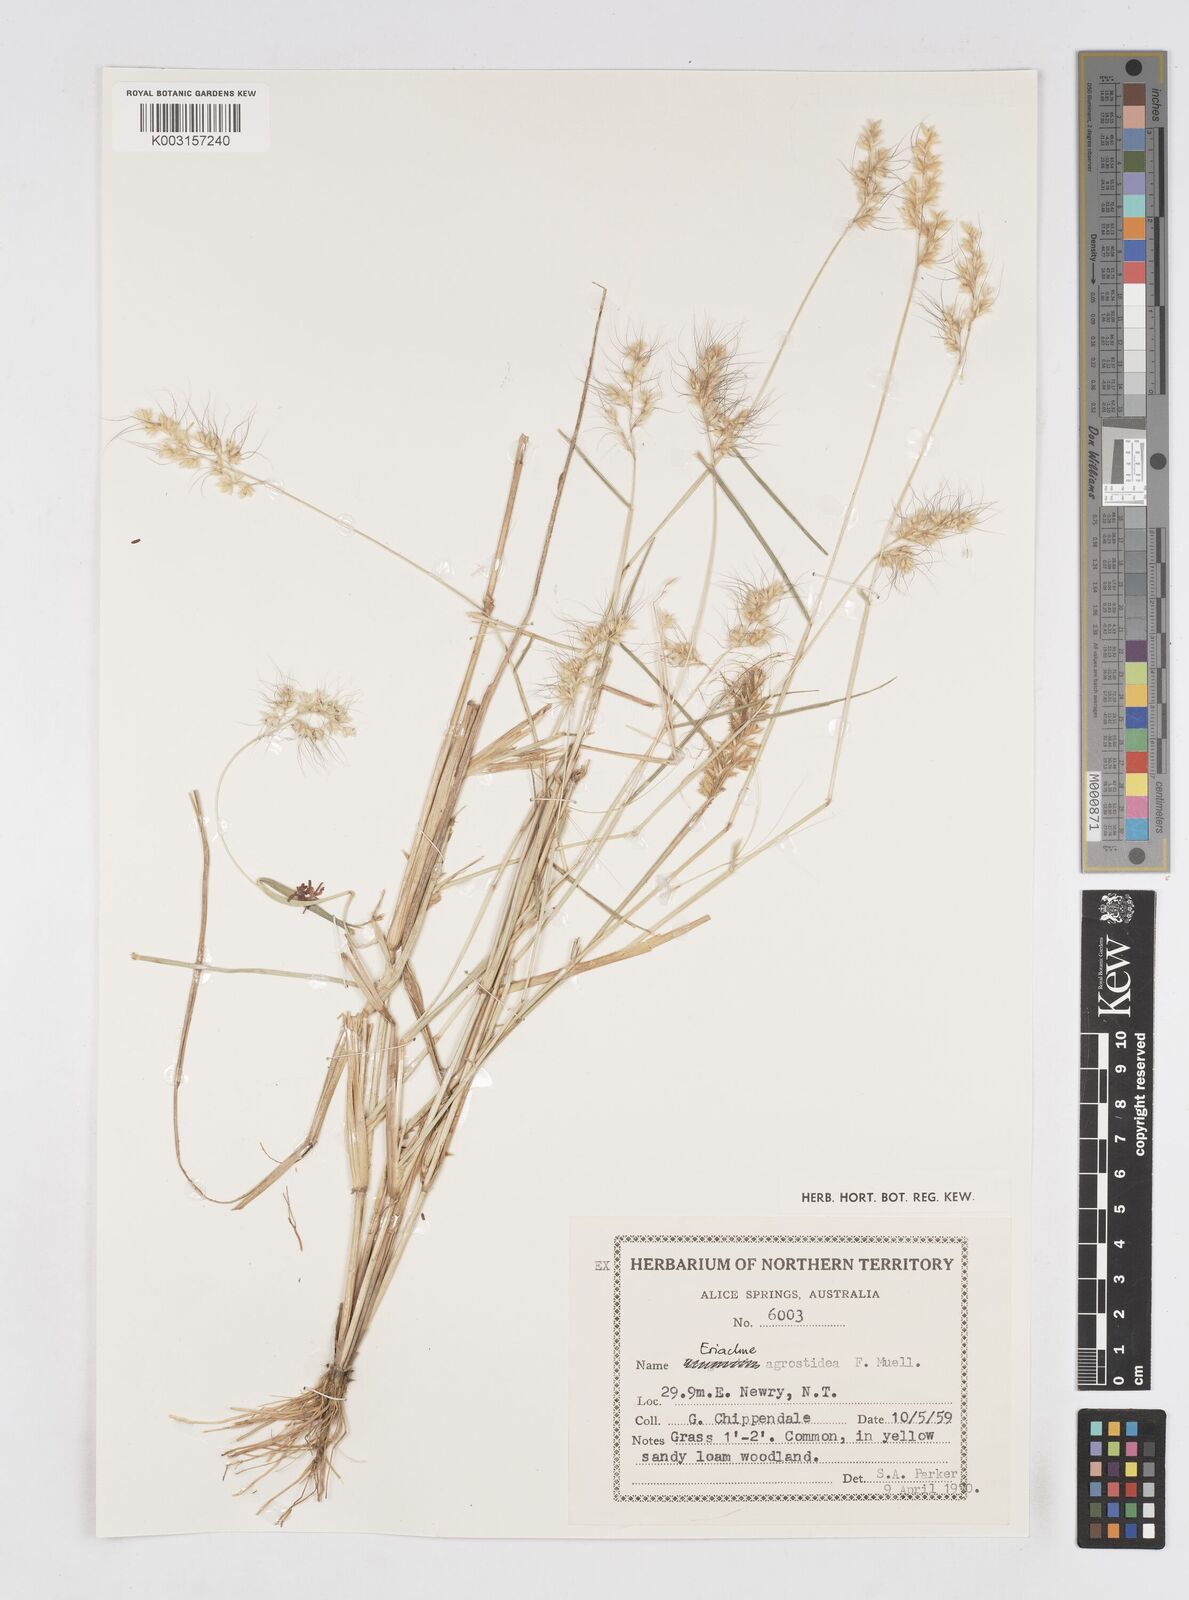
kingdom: Plantae
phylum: Tracheophyta
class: Liliopsida
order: Poales
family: Poaceae
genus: Eriachne
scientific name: Eriachne agrostidea
